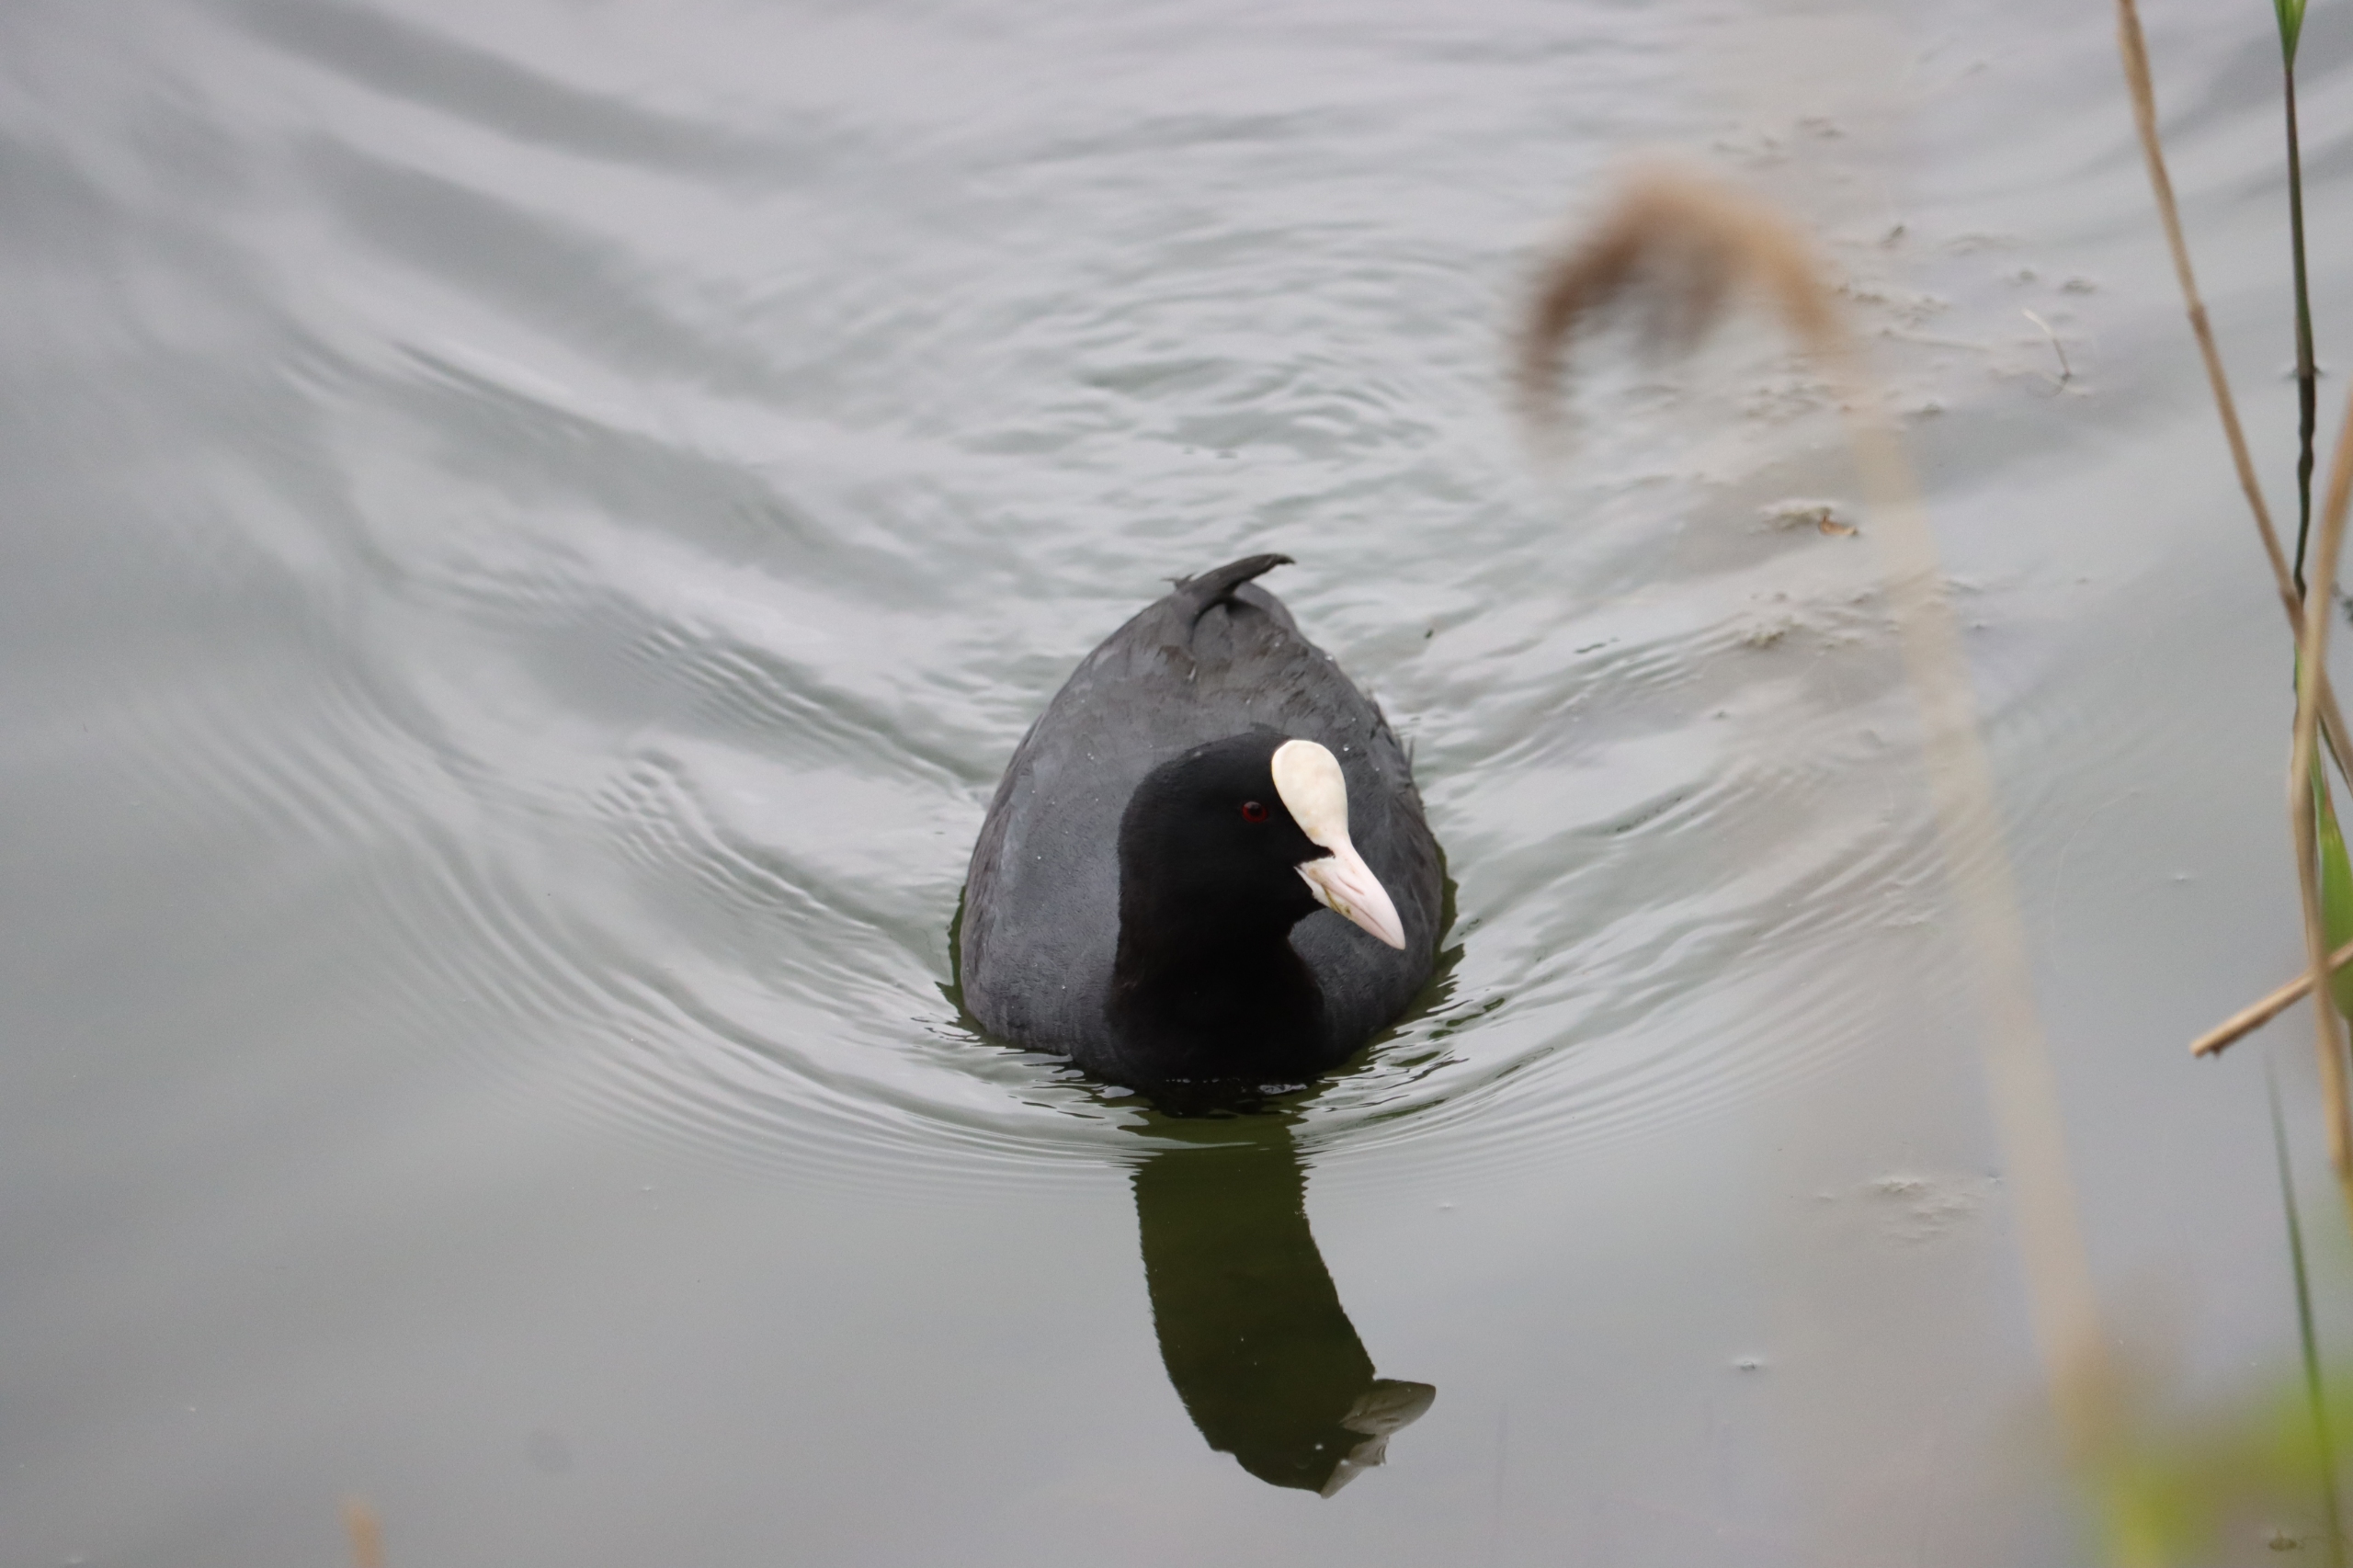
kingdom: Animalia
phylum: Chordata
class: Aves
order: Gruiformes
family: Rallidae
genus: Fulica
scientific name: Fulica atra
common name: Blishøne
